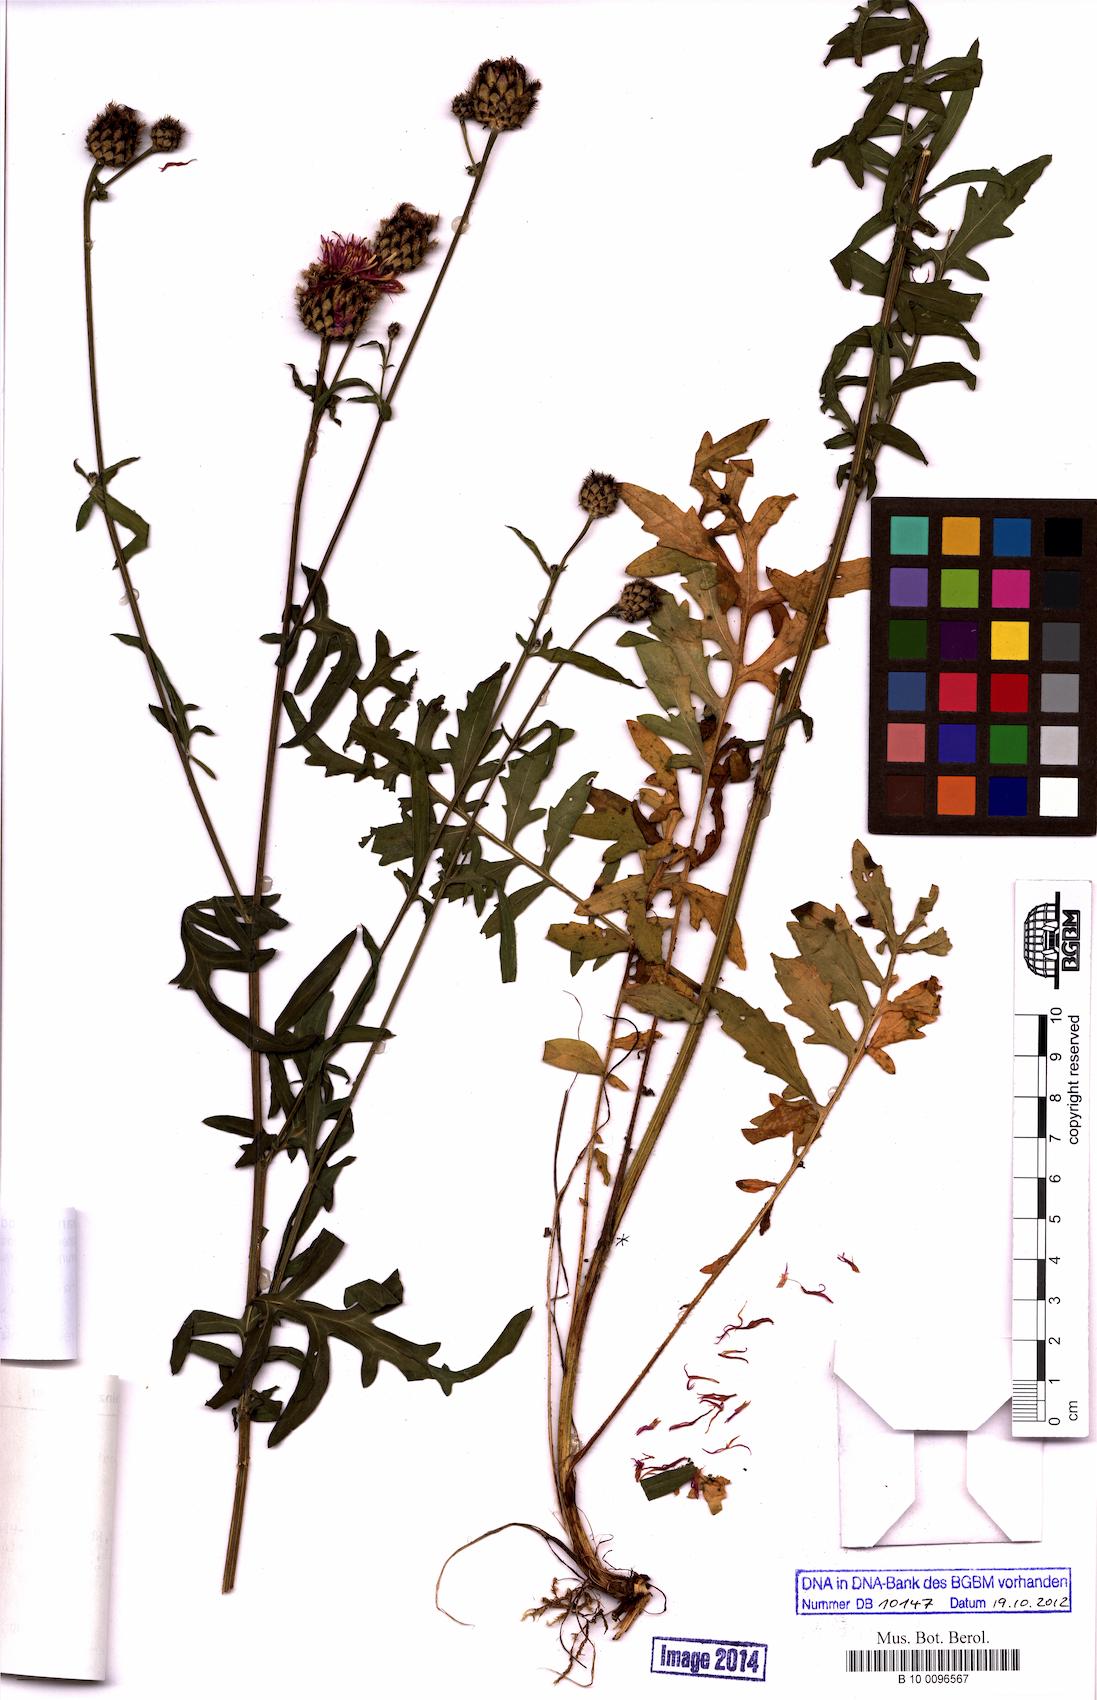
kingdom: Plantae
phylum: Tracheophyta
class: Magnoliopsida
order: Asterales
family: Asteraceae
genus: Centaurea
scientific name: Centaurea scabiosa
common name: Greater knapweed
